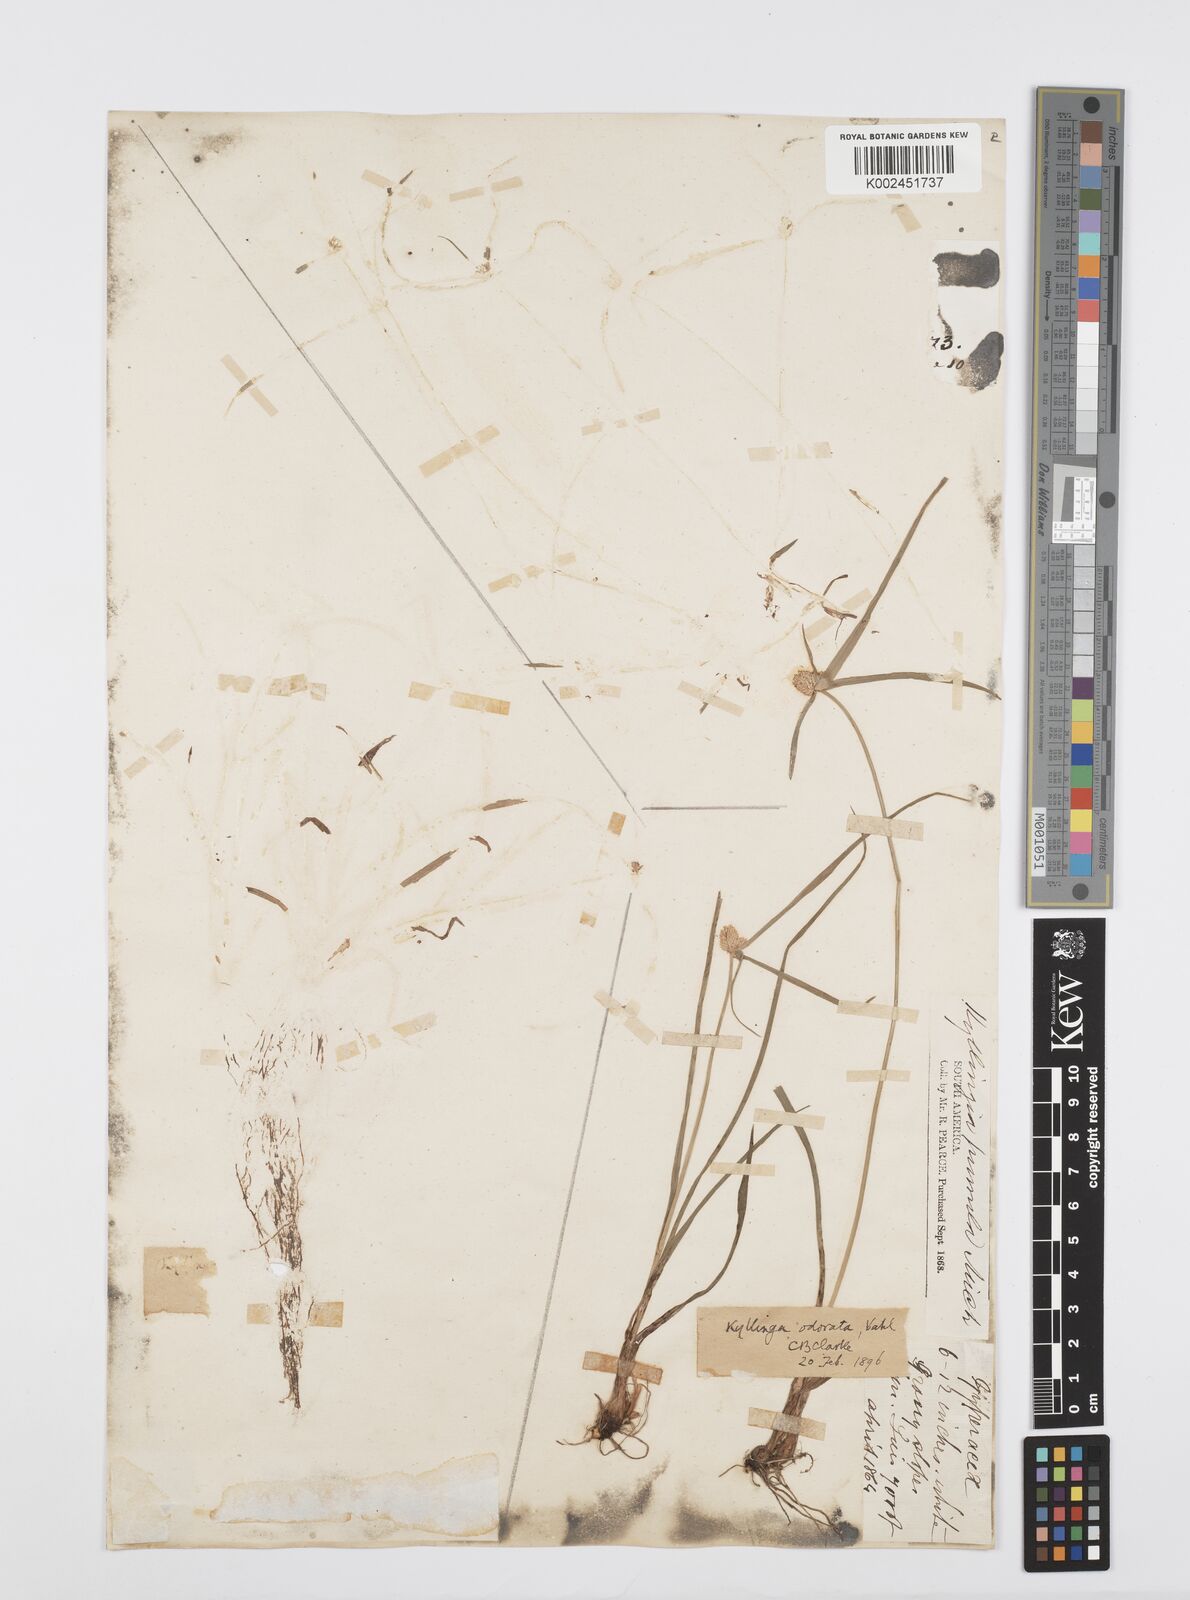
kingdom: Plantae
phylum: Tracheophyta
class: Liliopsida
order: Poales
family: Cyperaceae
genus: Cyperus
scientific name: Cyperus
